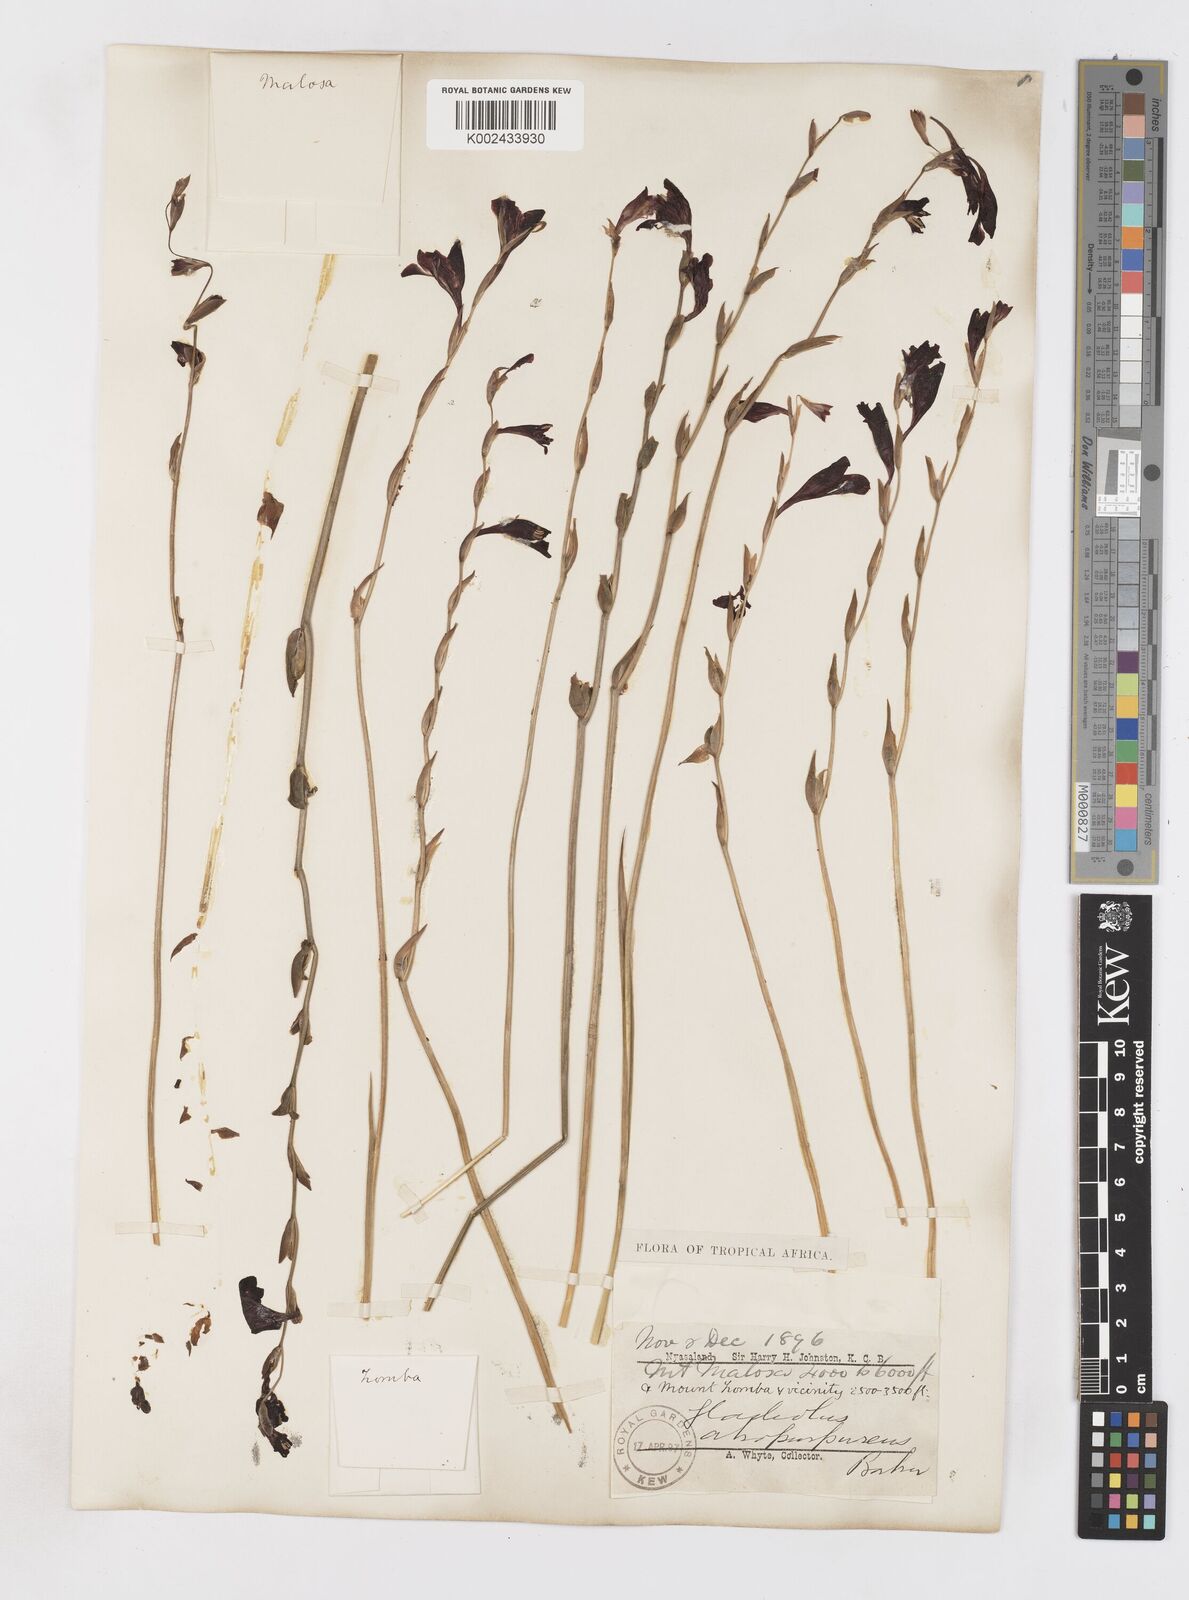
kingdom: Plantae
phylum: Tracheophyta
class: Liliopsida
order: Asparagales
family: Iridaceae
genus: Gladiolus
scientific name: Gladiolus atropurpureus
